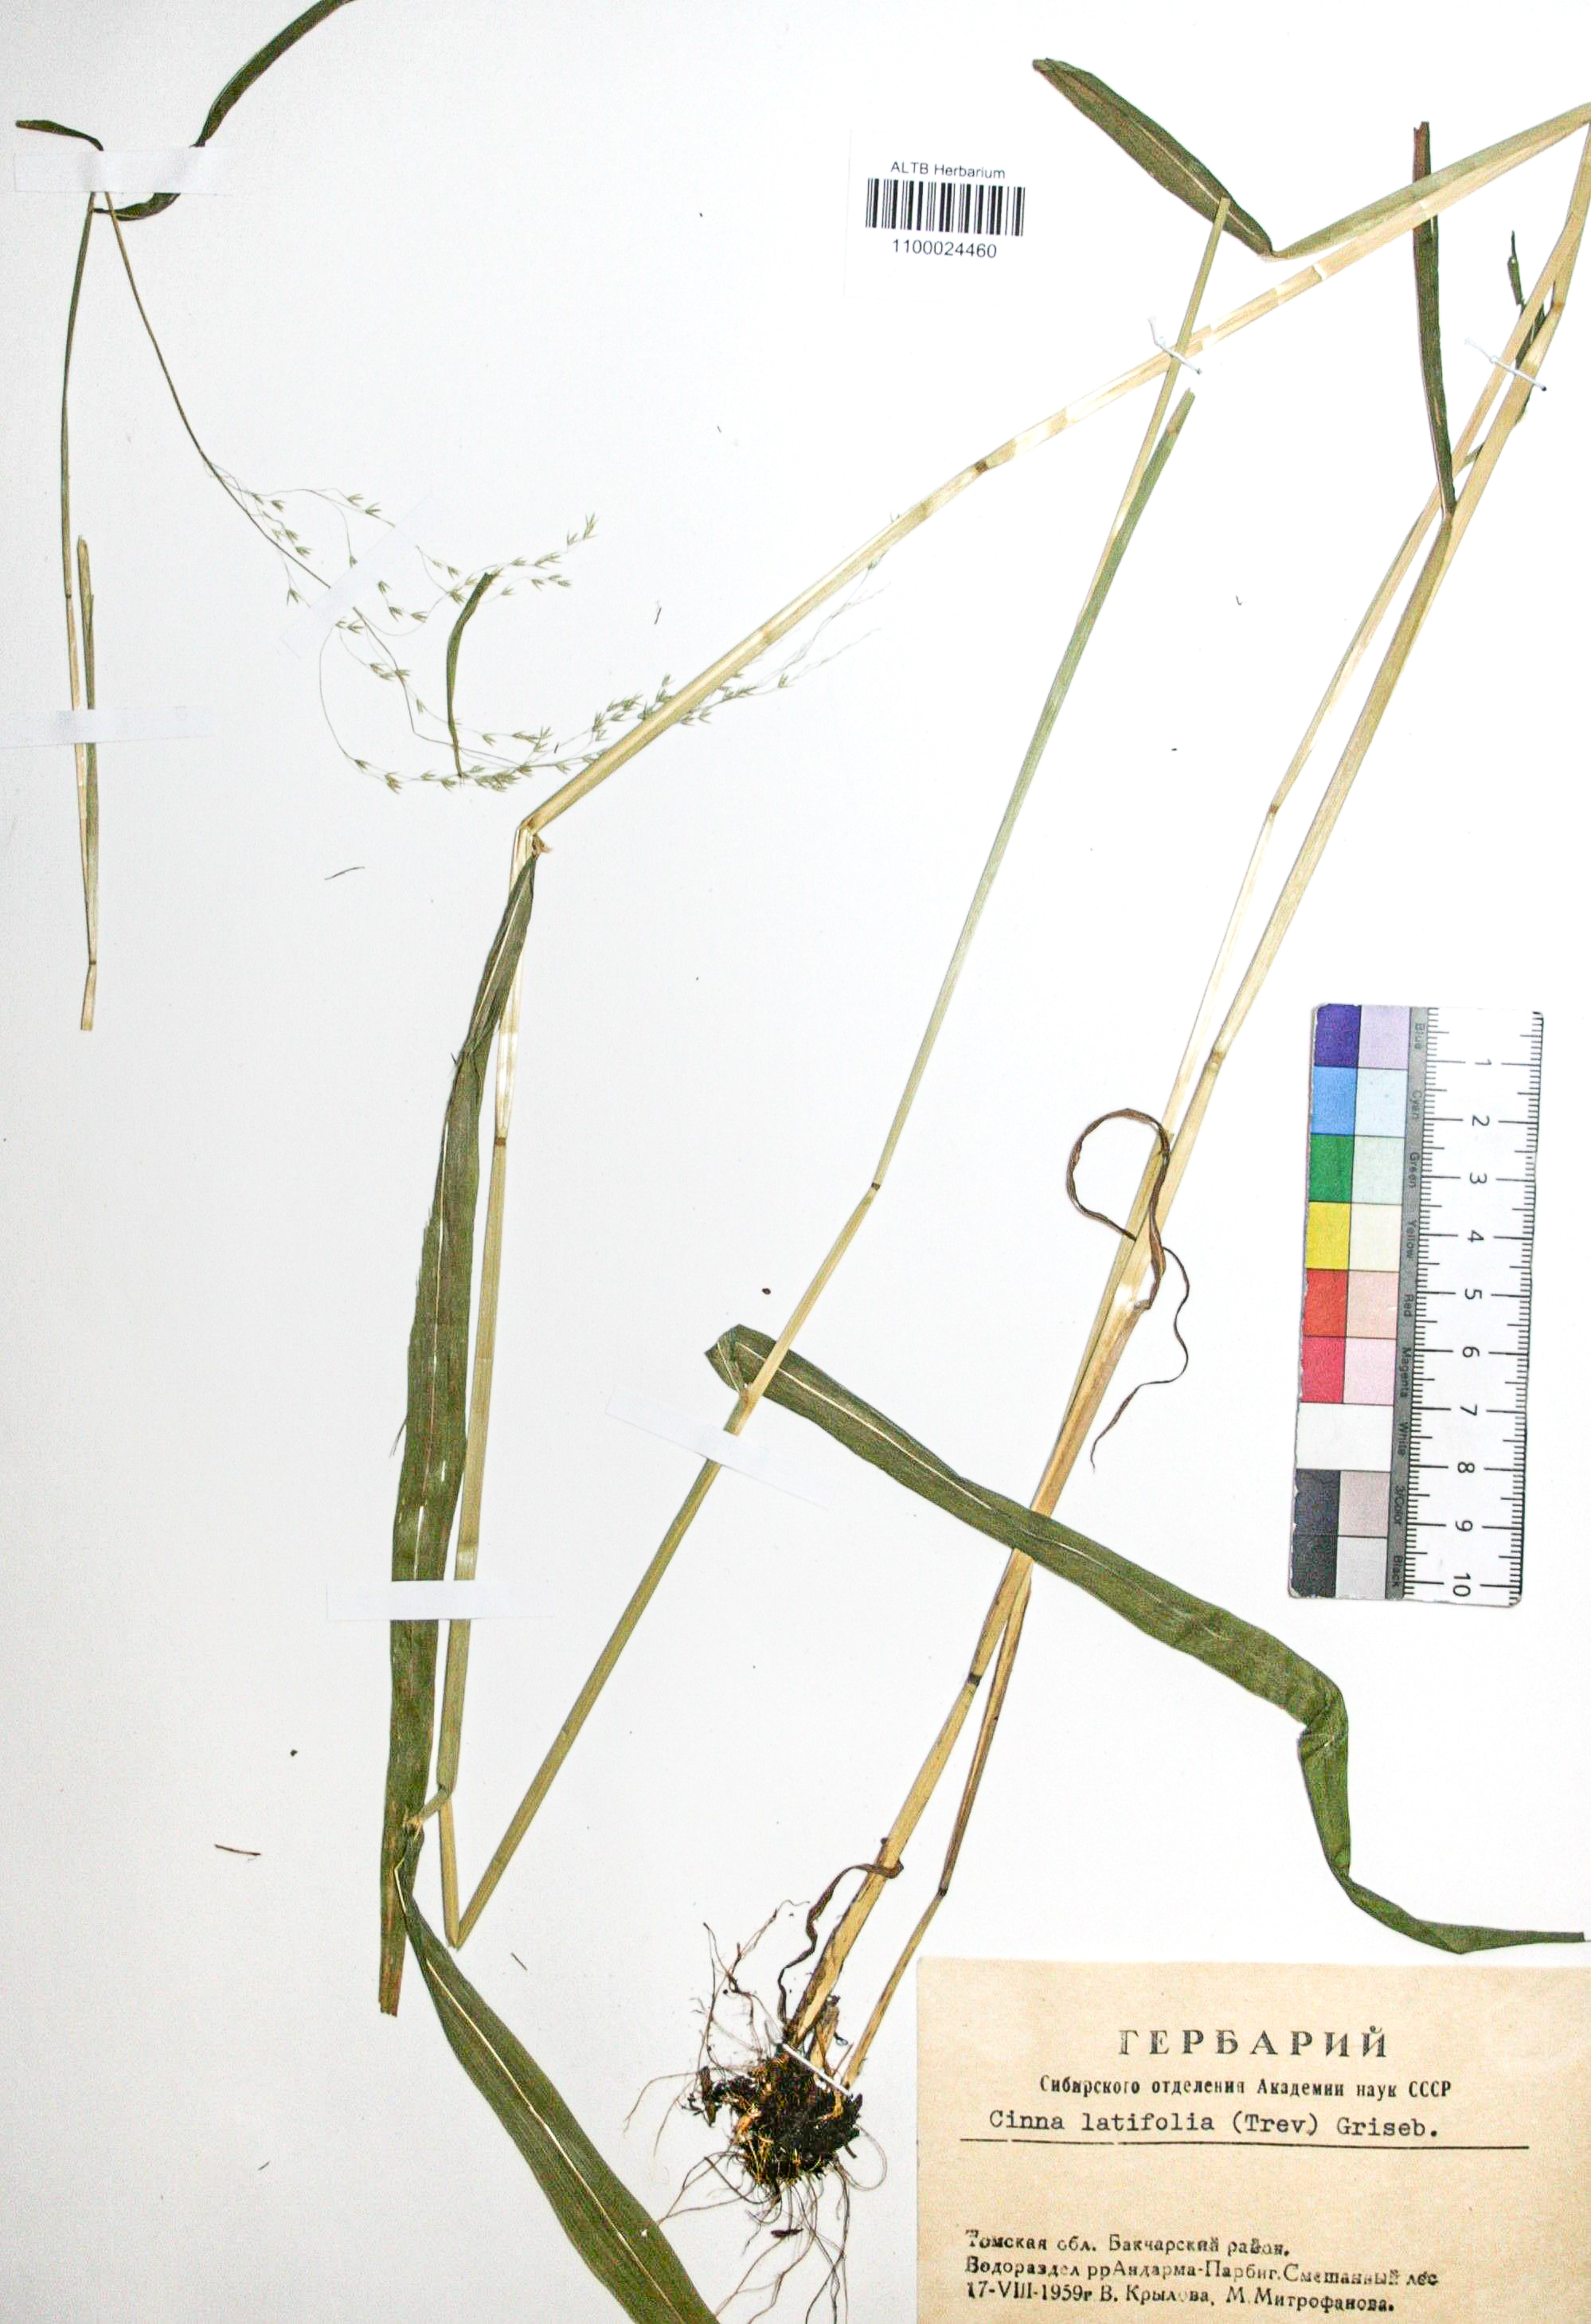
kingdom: Plantae
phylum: Tracheophyta
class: Liliopsida
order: Poales
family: Poaceae
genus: Cinna
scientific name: Cinna latifolia
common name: Drooping woodreed
